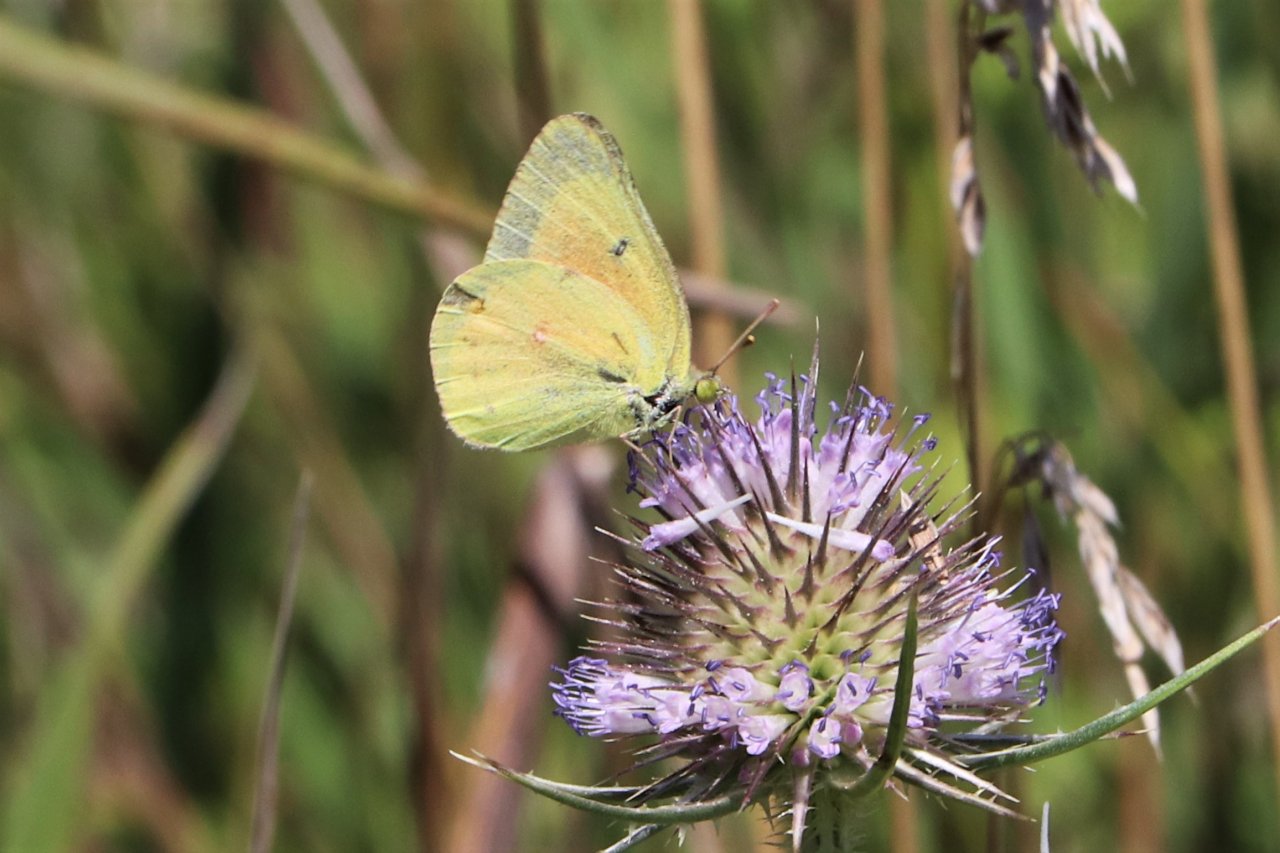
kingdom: Animalia
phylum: Arthropoda
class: Insecta
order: Lepidoptera
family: Pieridae
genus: Colias
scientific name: Colias eurytheme
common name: Orange Sulphur
